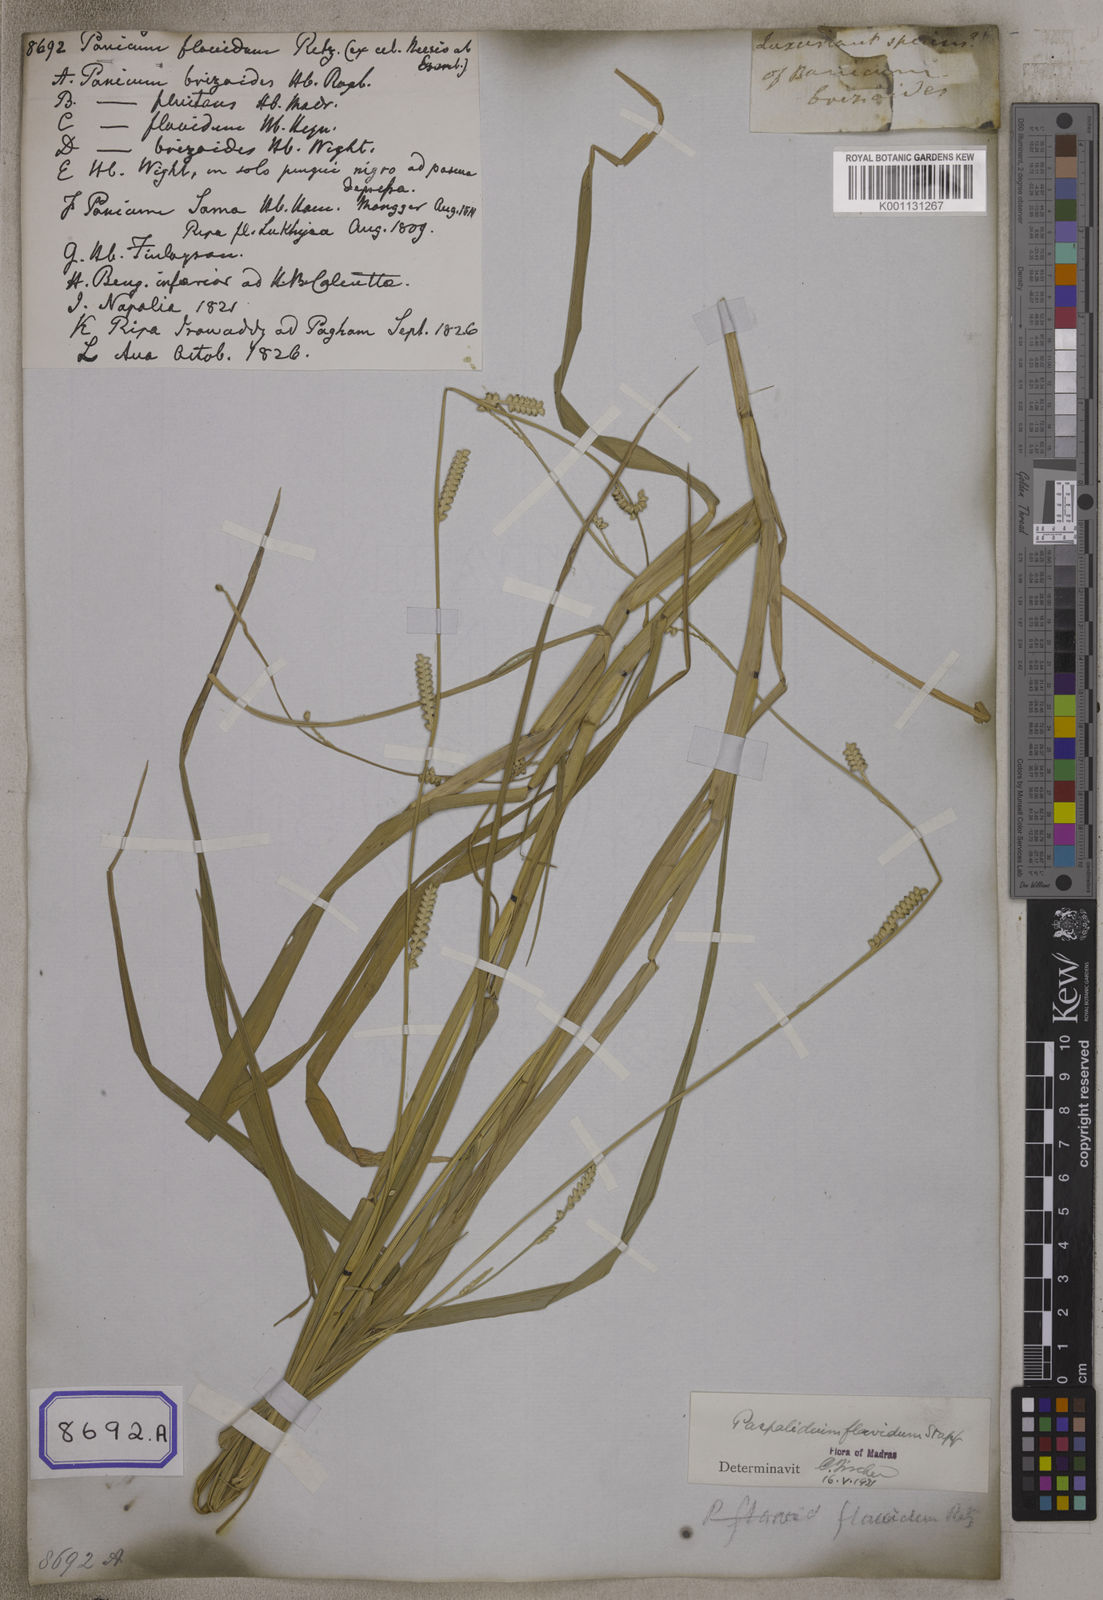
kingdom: Plantae
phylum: Tracheophyta
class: Liliopsida
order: Poales
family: Poaceae
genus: Setaria
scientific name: Setaria flavida
